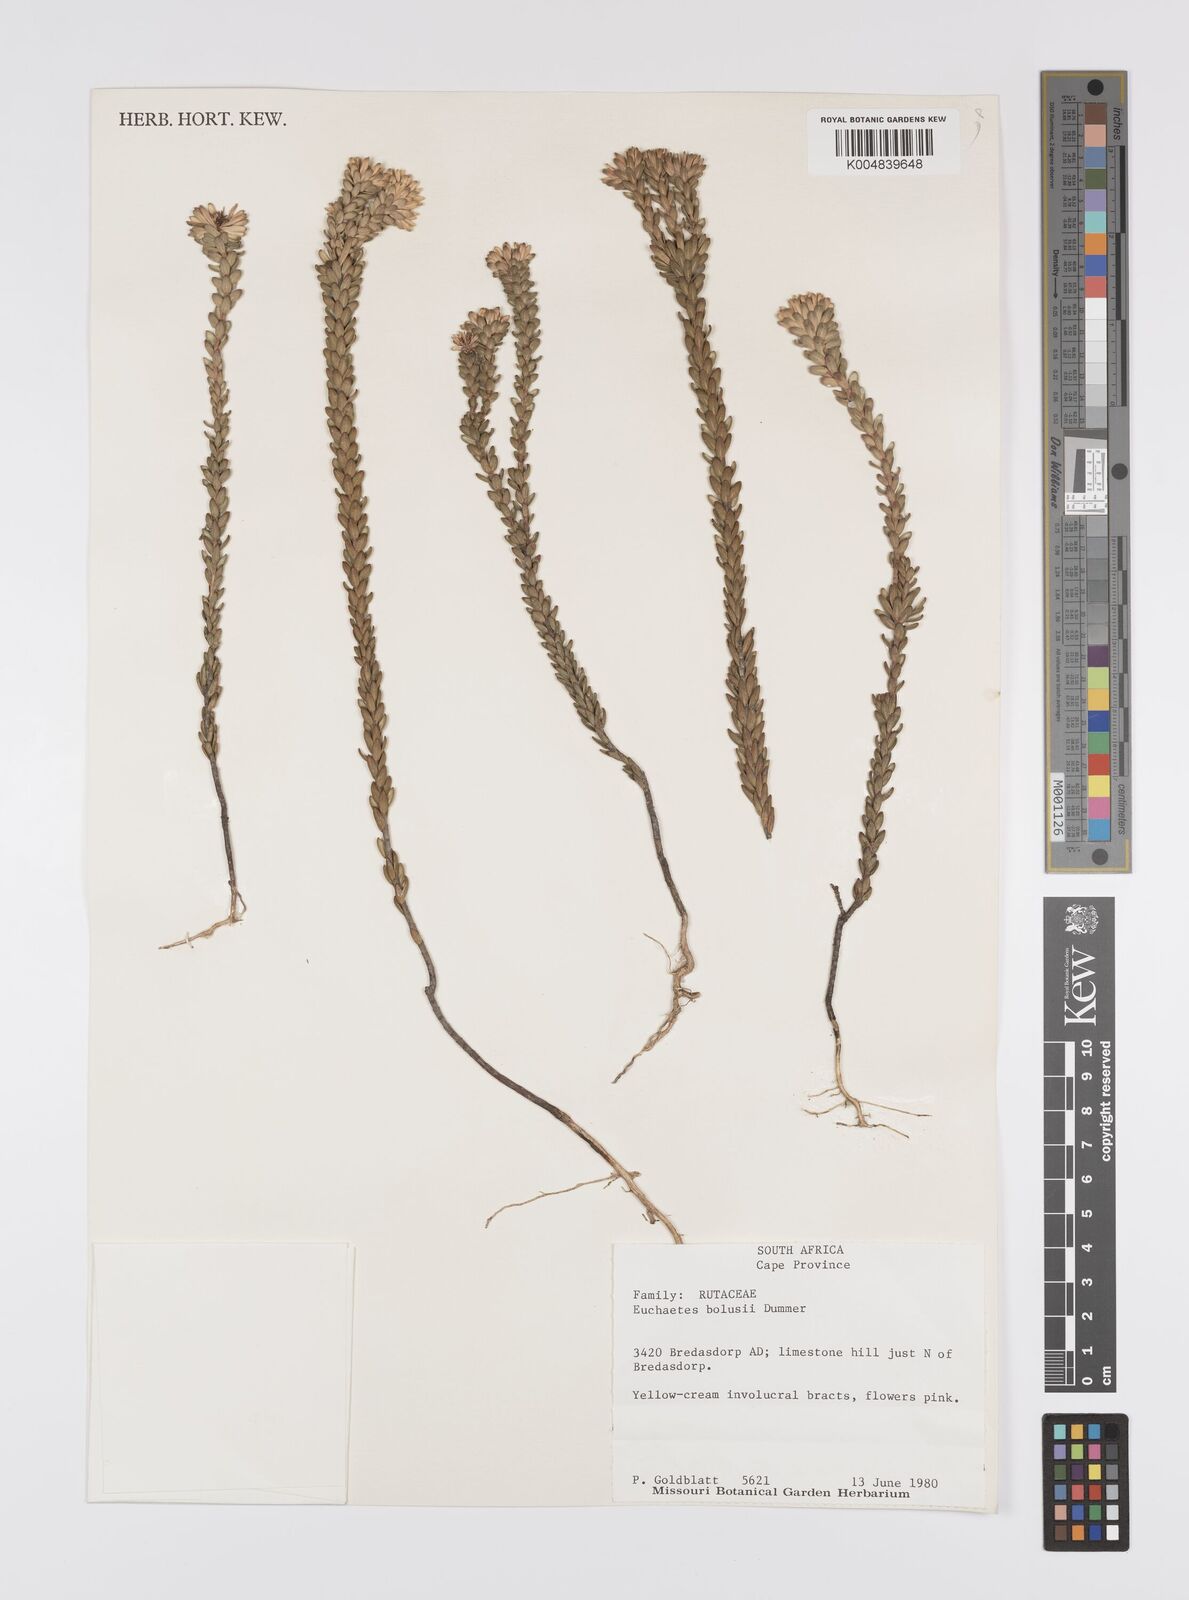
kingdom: Plantae
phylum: Tracheophyta
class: Magnoliopsida
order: Sapindales
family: Rutaceae
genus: Euchaetis
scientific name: Euchaetis longibracteata
